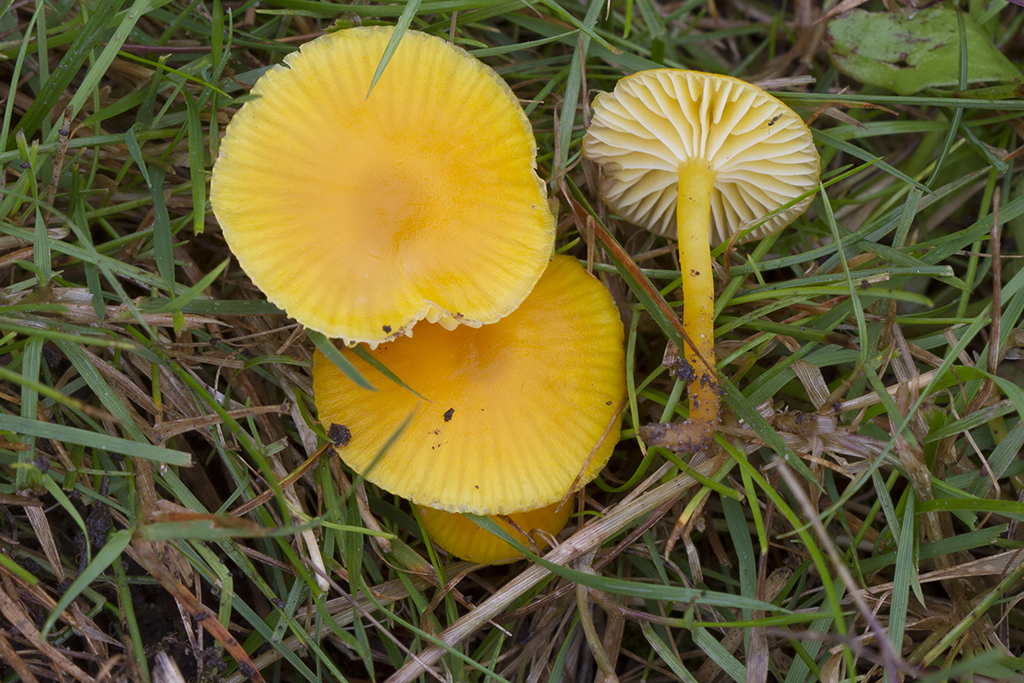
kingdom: Fungi
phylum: Basidiomycota
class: Agaricomycetes
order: Agaricales
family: Hygrophoraceae
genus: Hygrocybe
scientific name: Hygrocybe ceracea
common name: voksgul vokshat
